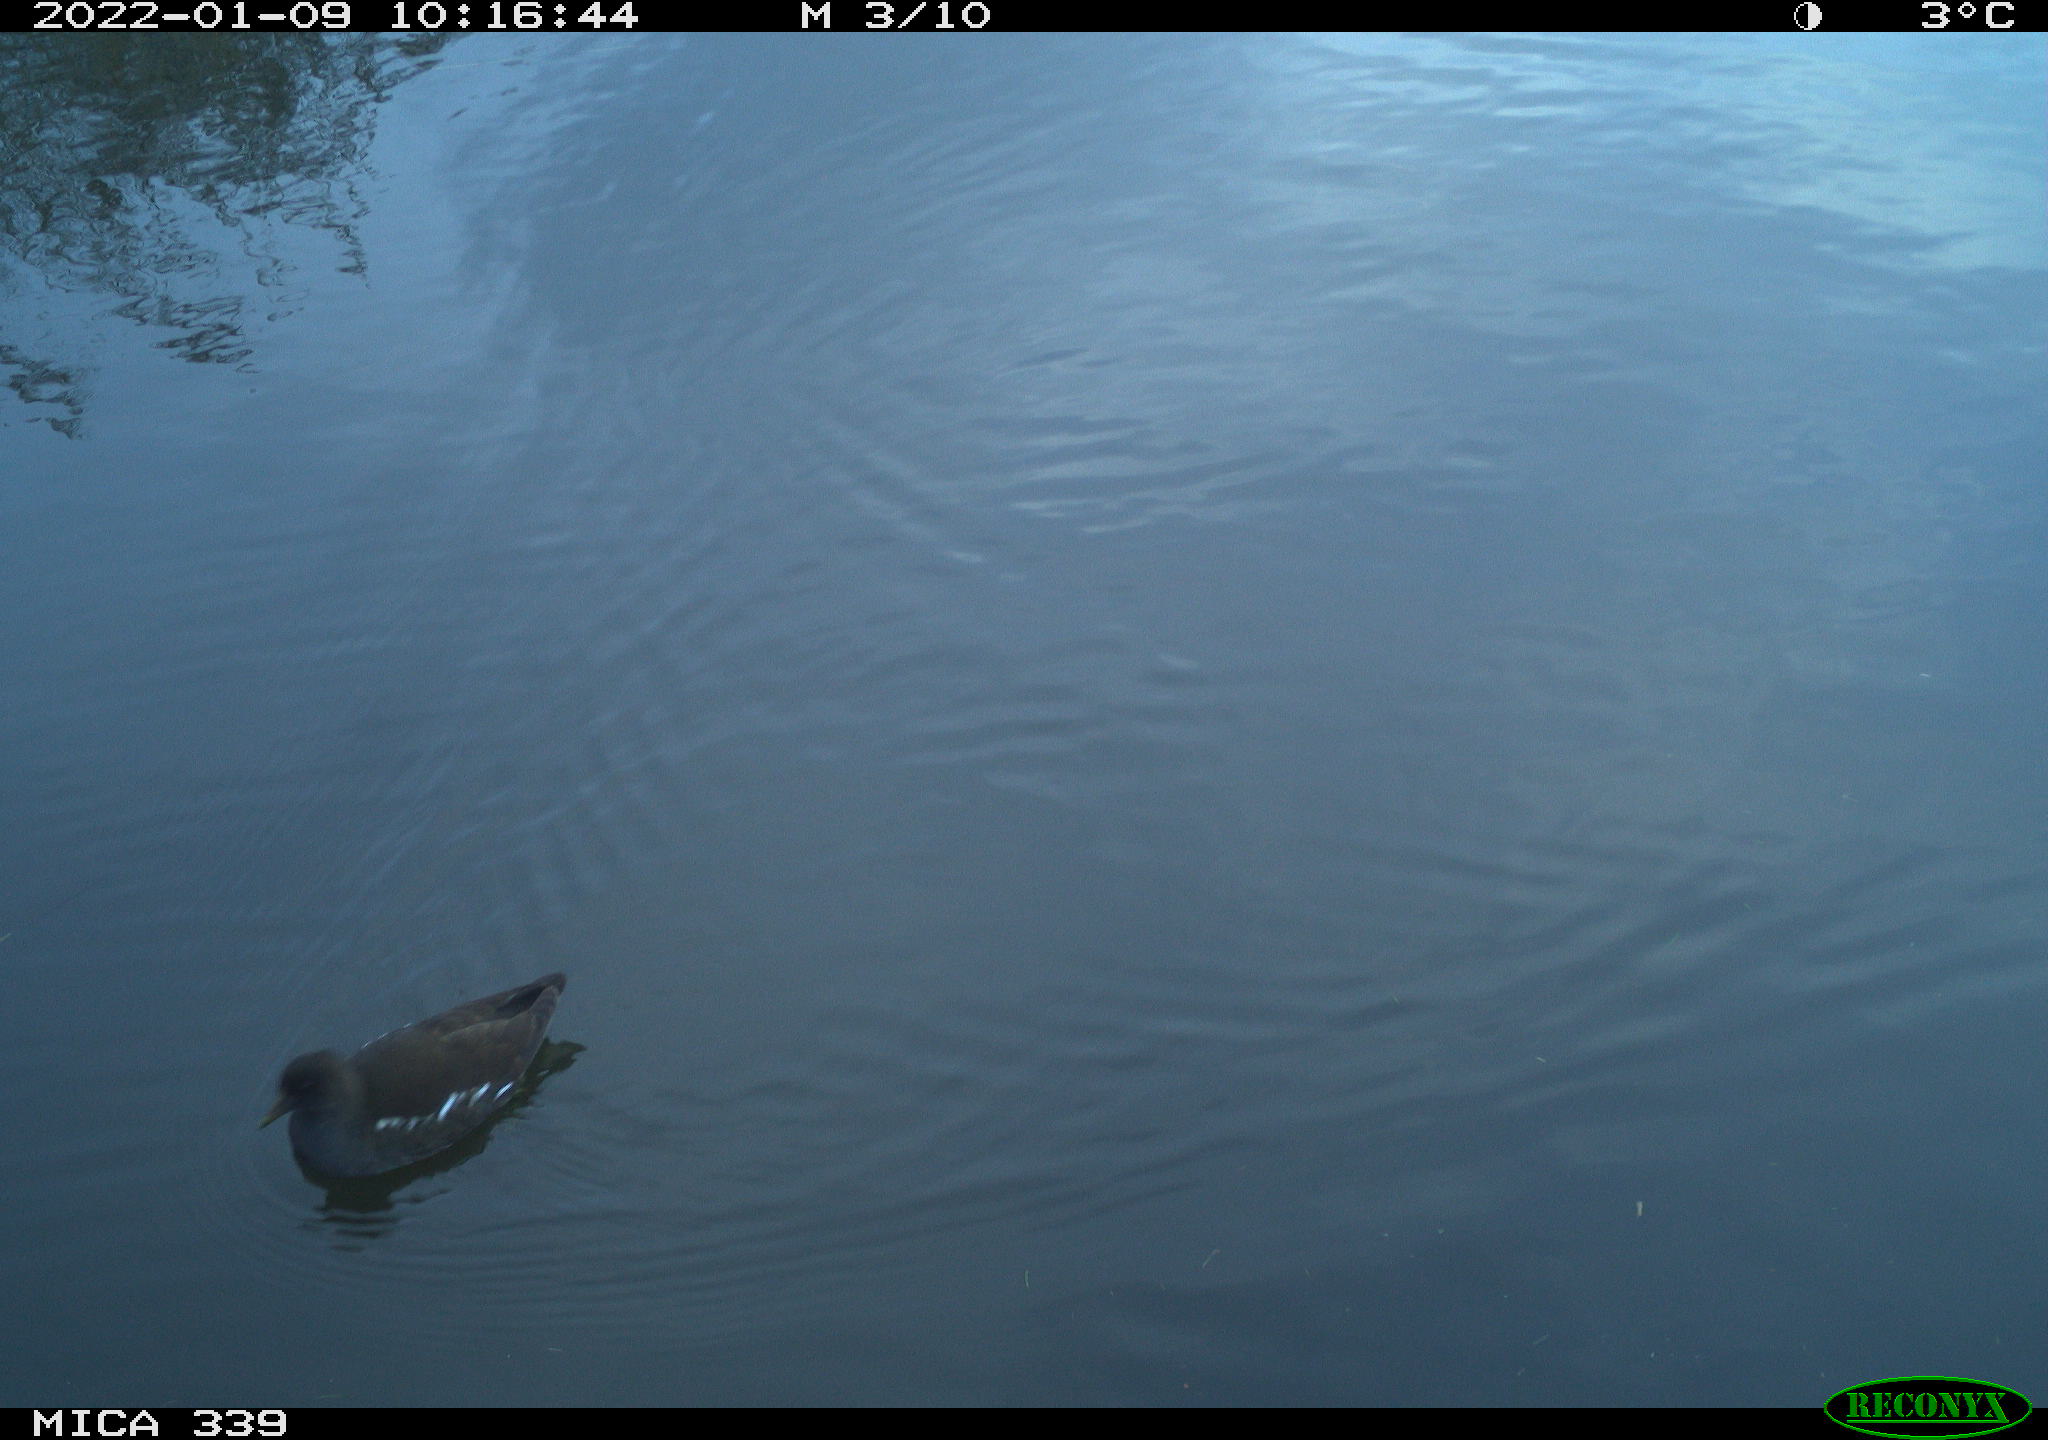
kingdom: Animalia
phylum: Chordata
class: Aves
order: Gruiformes
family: Rallidae
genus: Gallinula
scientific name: Gallinula chloropus
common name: Common moorhen
